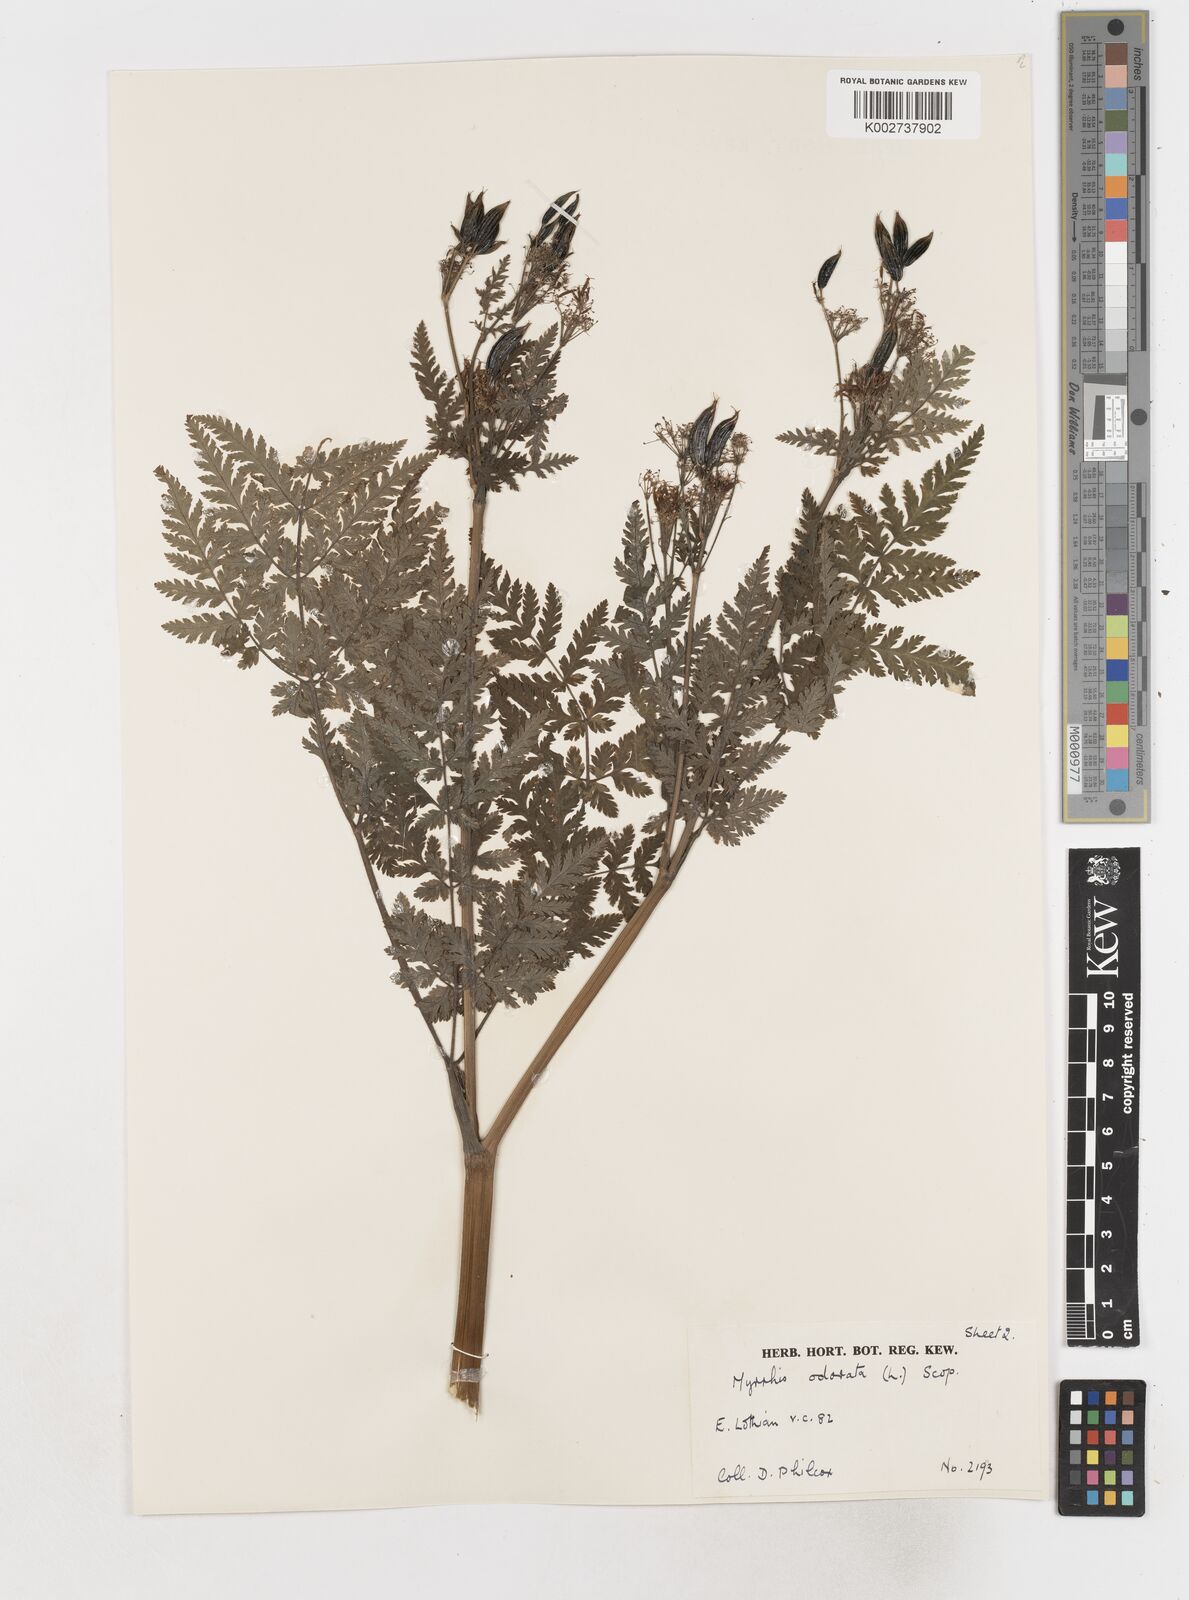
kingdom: Plantae
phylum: Tracheophyta
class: Magnoliopsida
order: Apiales
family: Apiaceae
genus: Myrrhis
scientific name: Myrrhis odorata
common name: Sweet cicely
